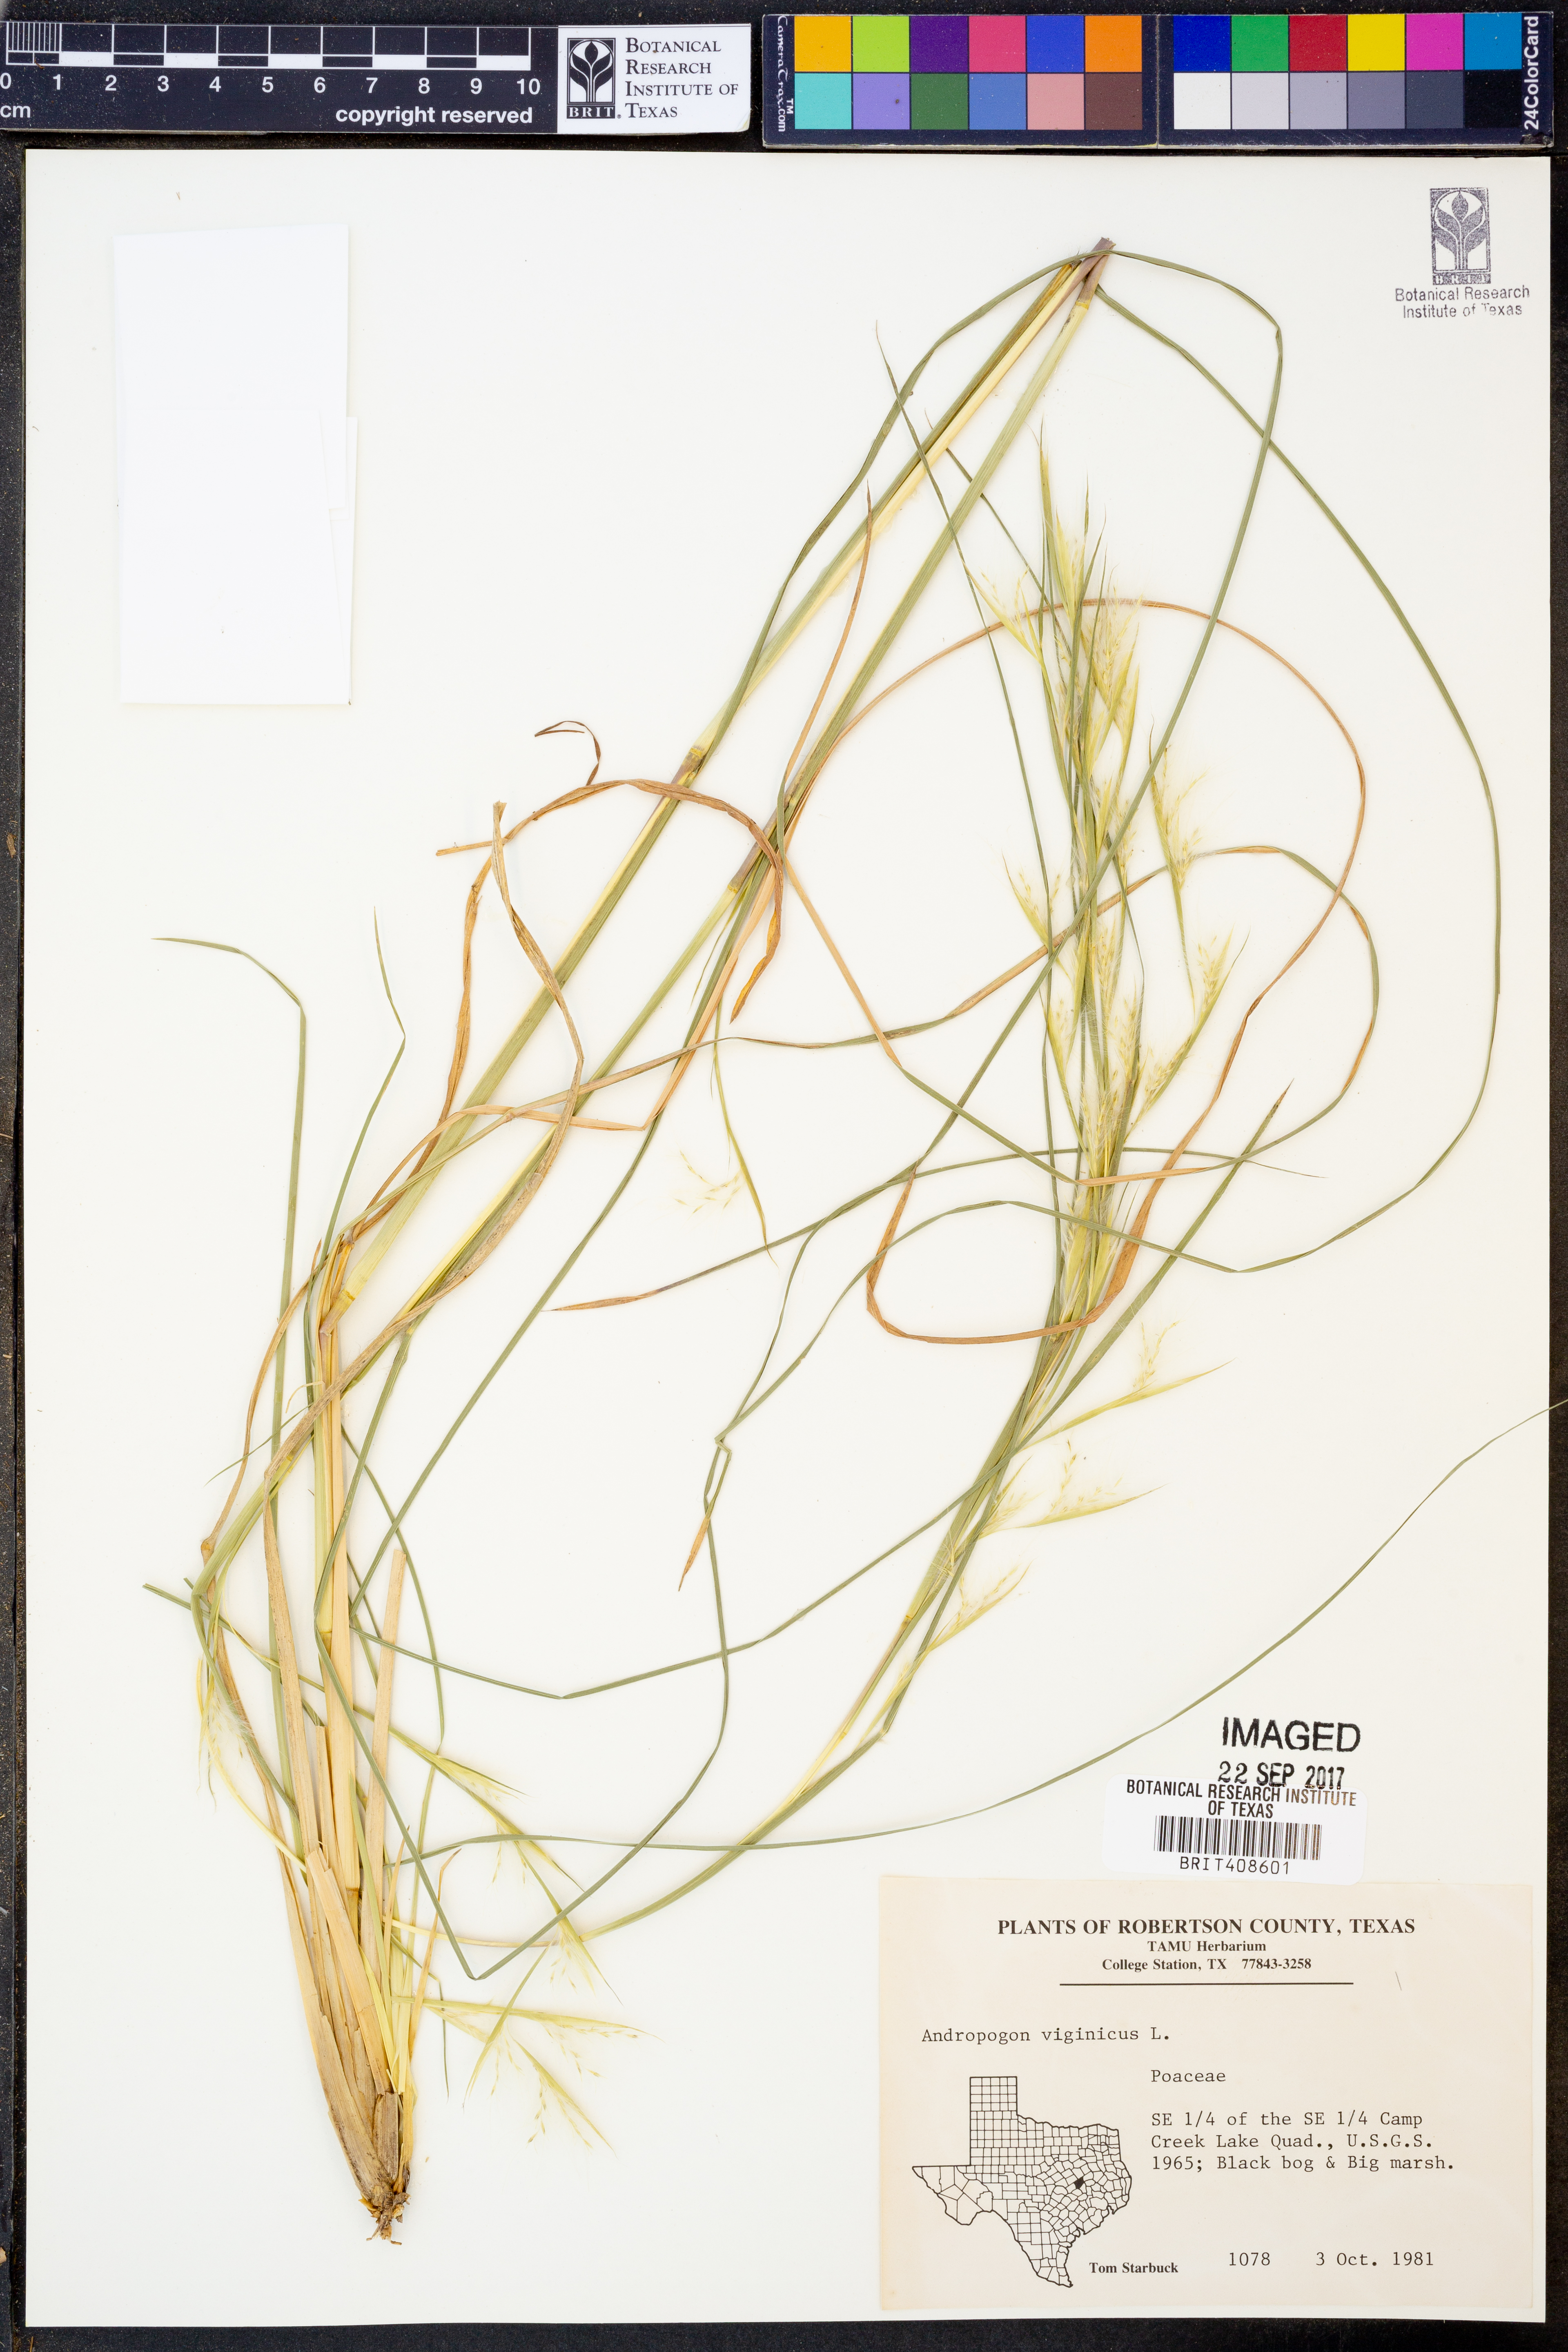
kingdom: Plantae
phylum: Tracheophyta
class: Liliopsida
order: Poales
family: Poaceae
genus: Andropogon
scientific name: Andropogon virginicus
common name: Broomsedge bluestem
